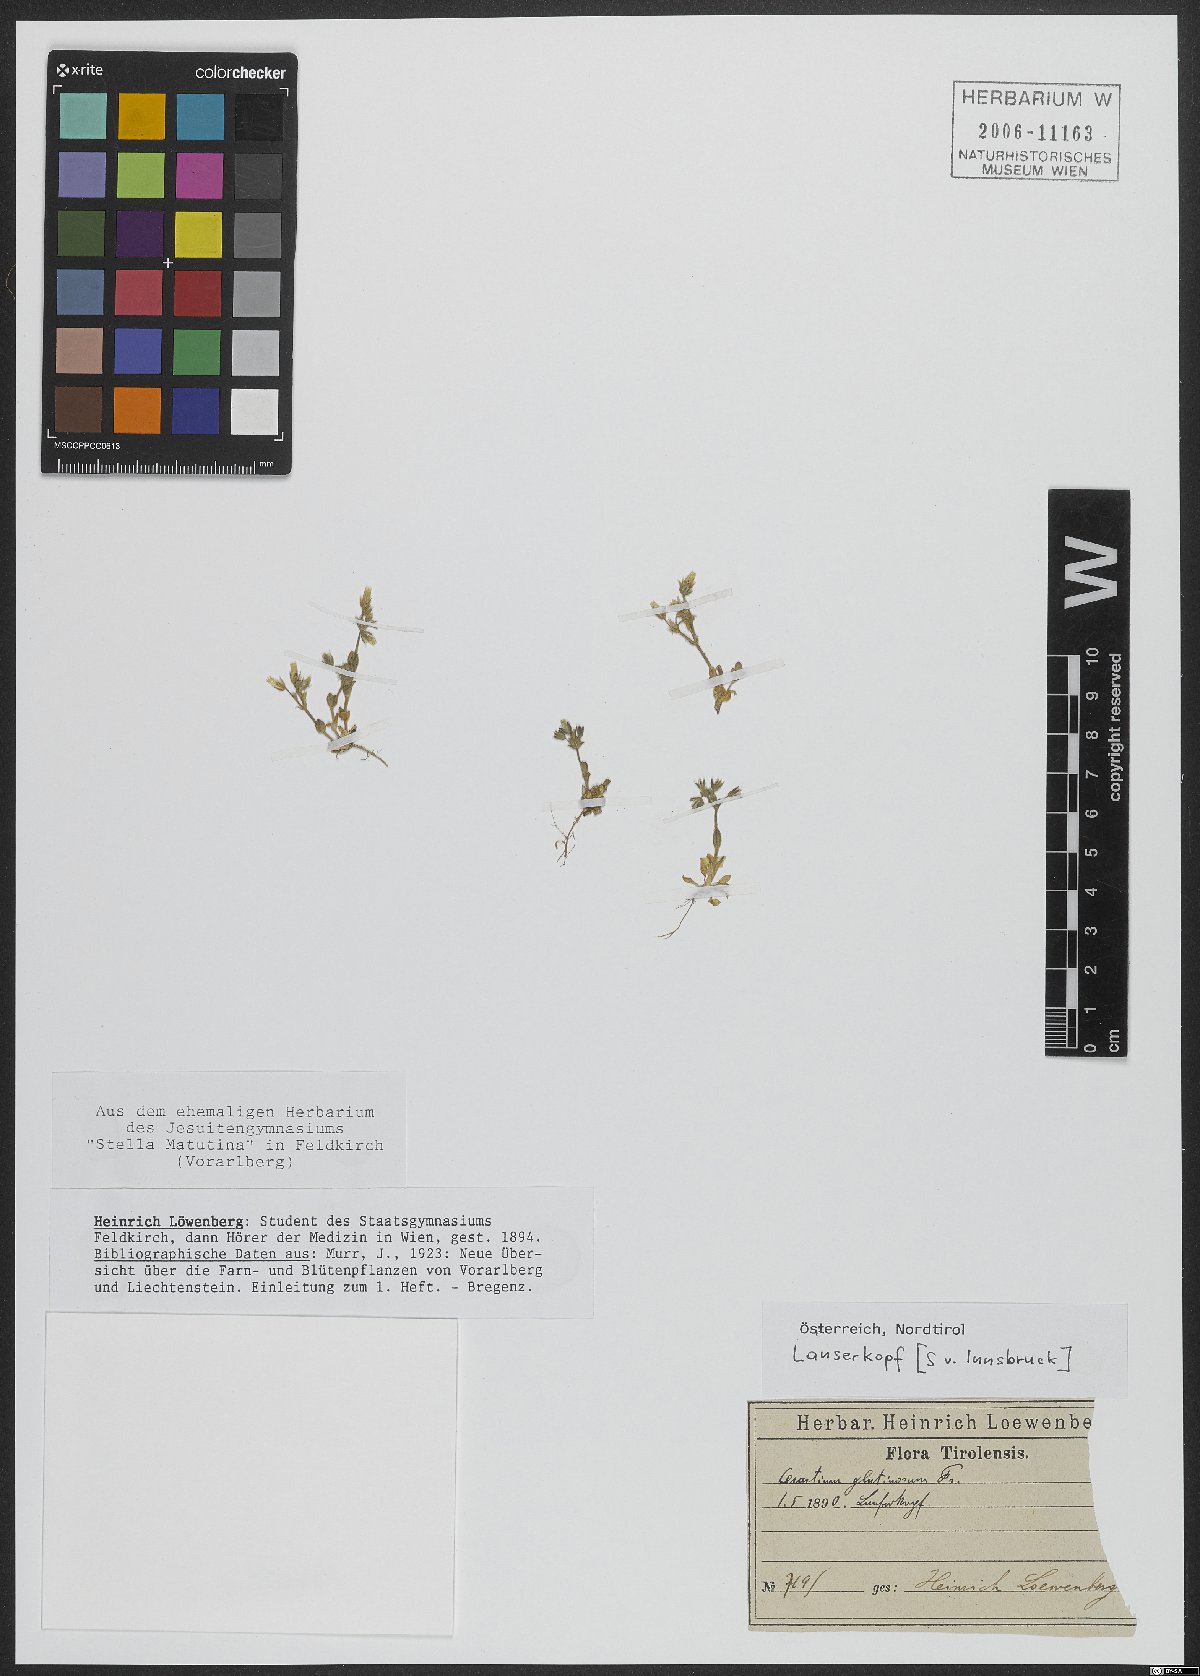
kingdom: Plantae
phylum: Tracheophyta
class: Magnoliopsida
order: Caryophyllales
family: Caryophyllaceae
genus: Cerastium
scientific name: Cerastium glutinosum
